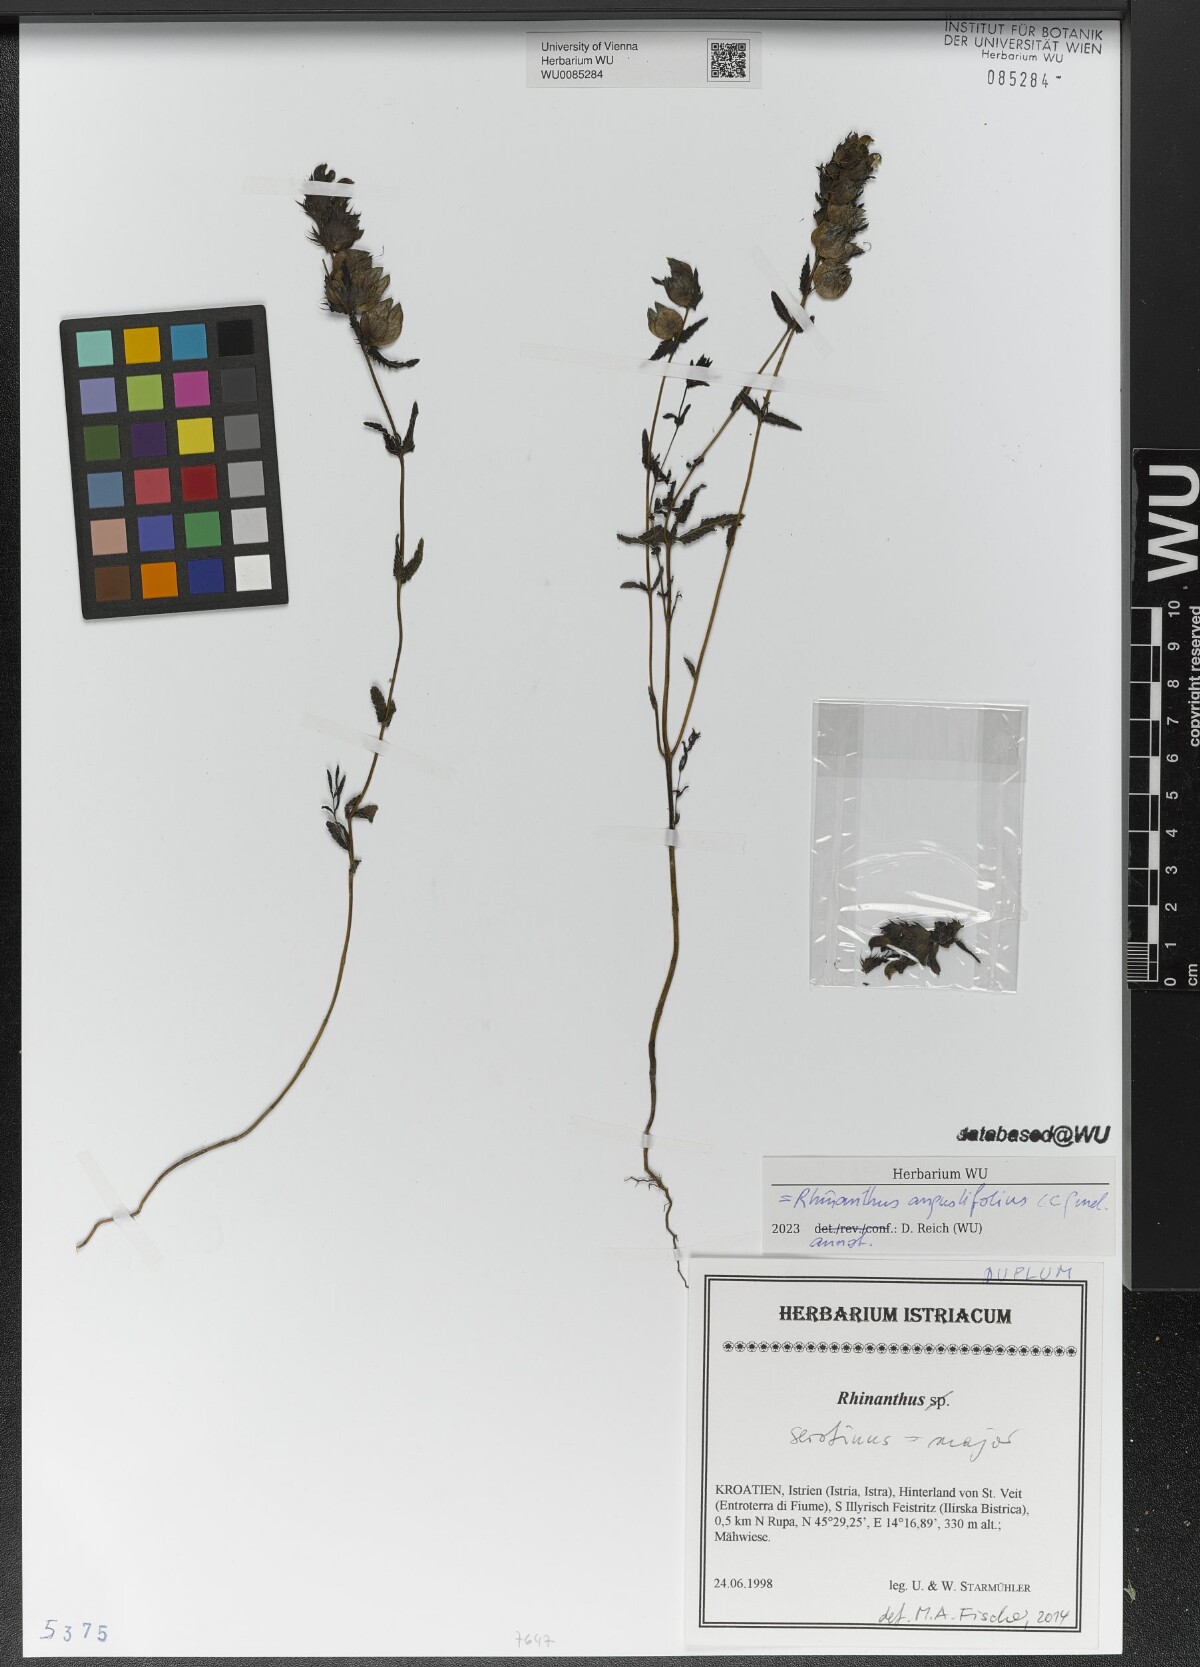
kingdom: Plantae
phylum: Tracheophyta
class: Magnoliopsida
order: Lamiales
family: Orobanchaceae
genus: Rhinanthus
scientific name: Rhinanthus
